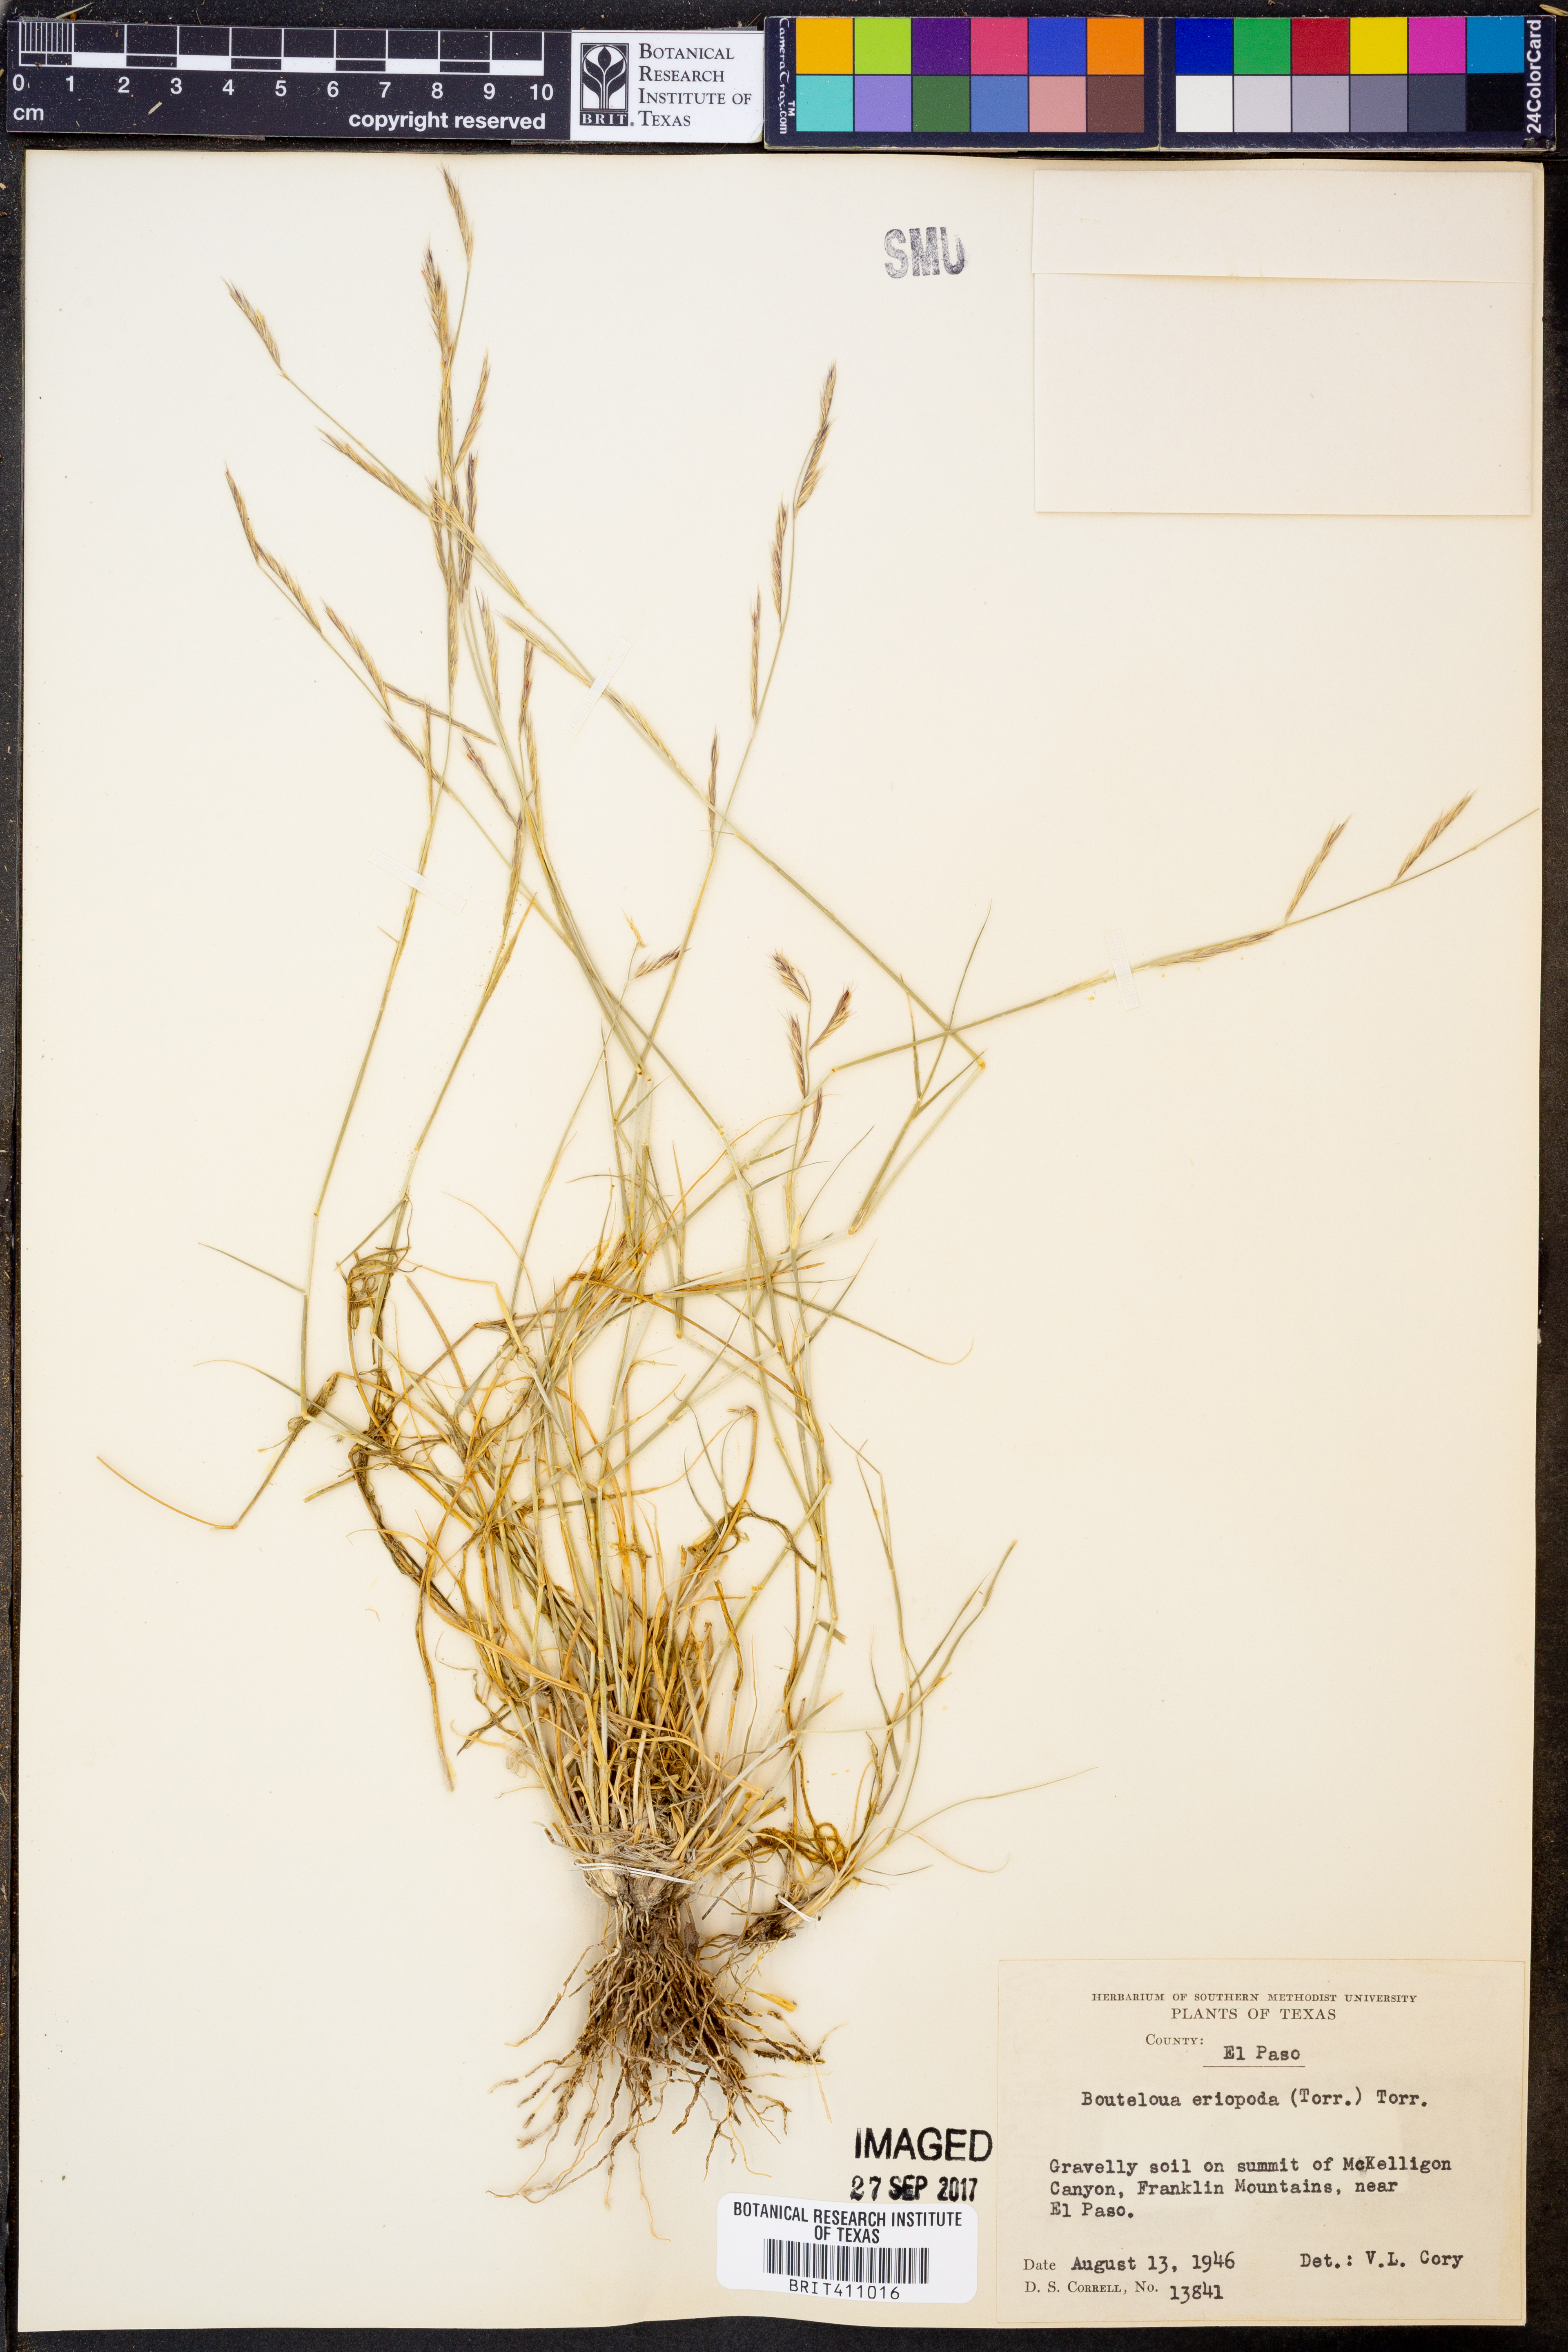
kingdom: Plantae
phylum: Tracheophyta
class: Liliopsida
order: Poales
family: Poaceae
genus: Bouteloua
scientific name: Bouteloua eriopoda
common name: Woolly foot grama
